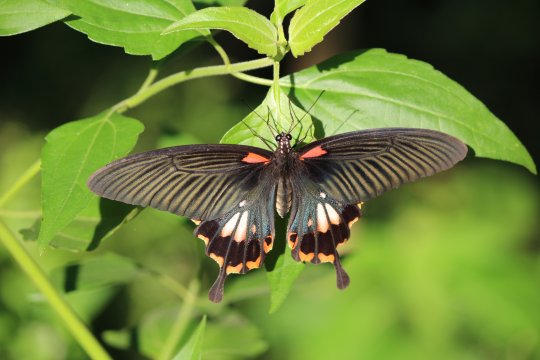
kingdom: Animalia
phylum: Arthropoda
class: Insecta
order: Lepidoptera
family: Papilionidae
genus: Papilio
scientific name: Papilio rumanzovia
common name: Scarlet Mormon Swallowtail
